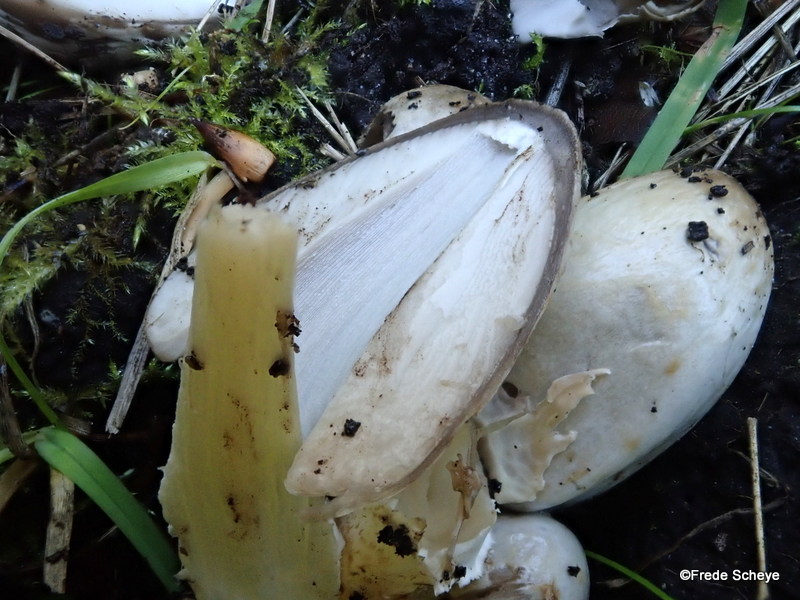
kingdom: Fungi
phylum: Basidiomycota
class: Agaricomycetes
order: Agaricales
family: Psathyrellaceae
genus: Coprinopsis
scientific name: Coprinopsis atramentaria
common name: almindelig blækhat
